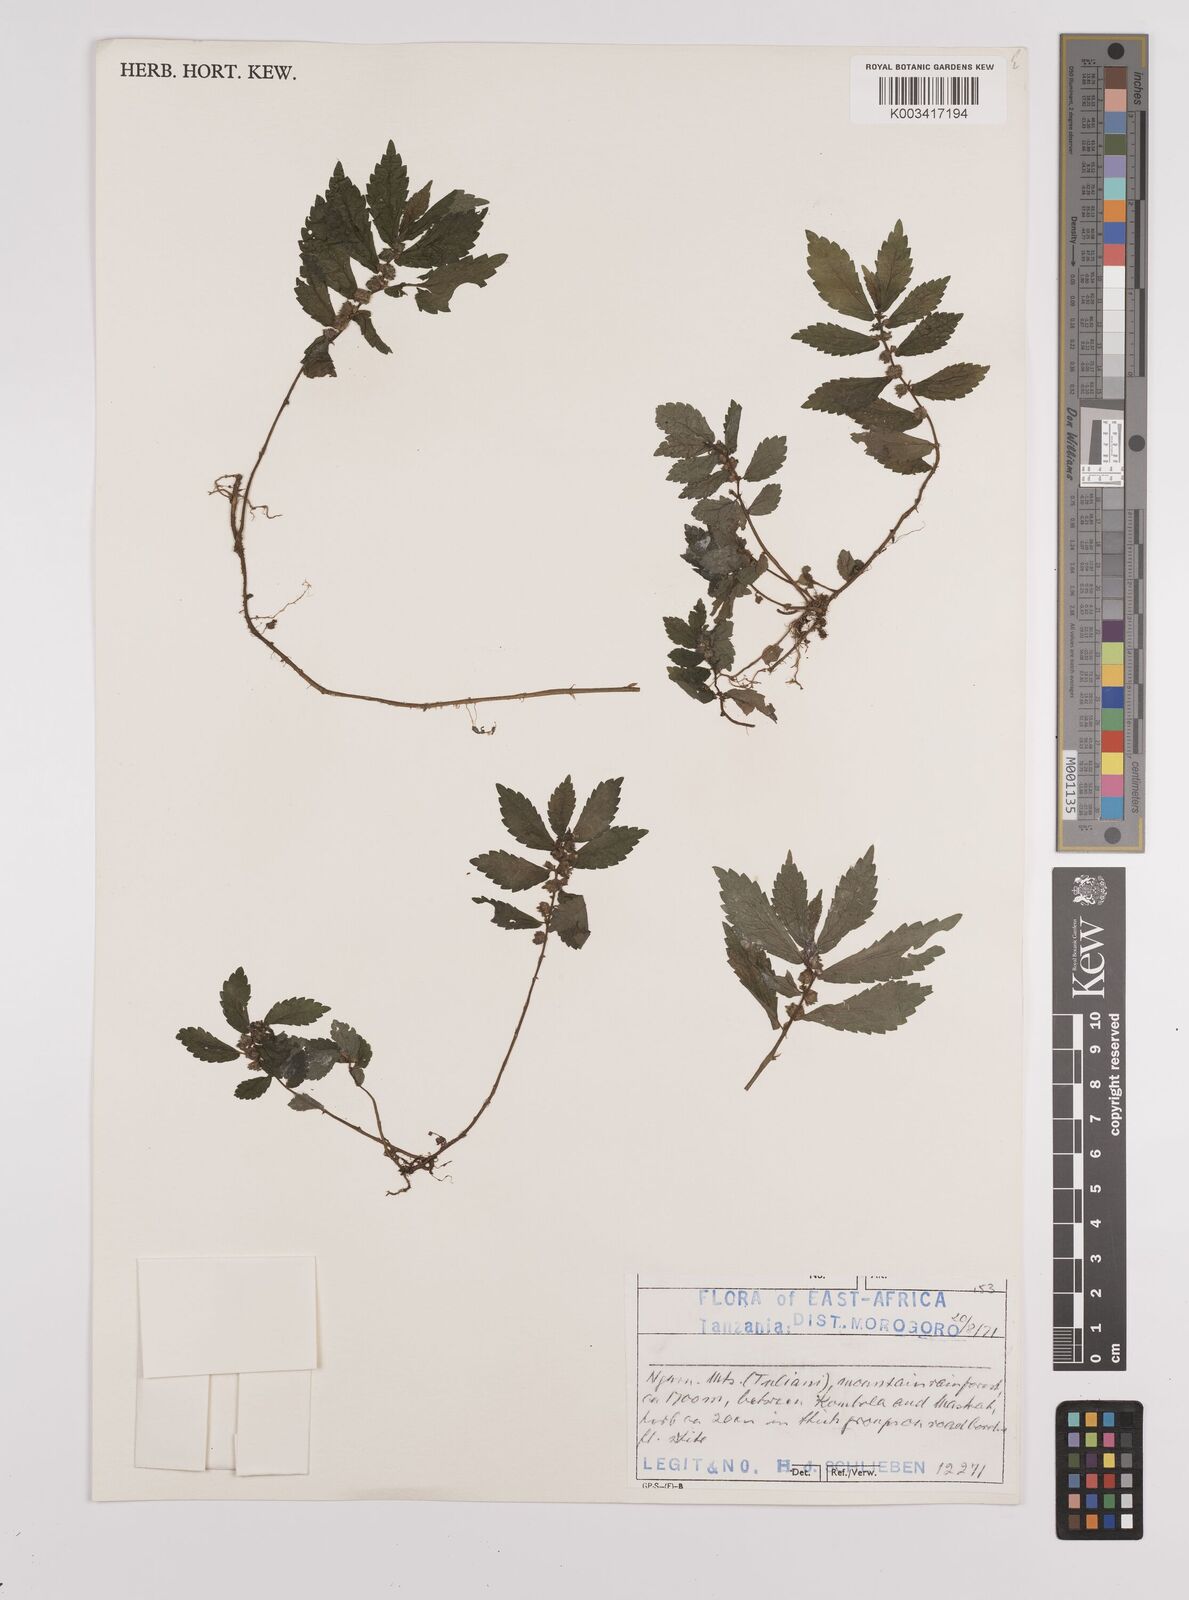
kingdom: Plantae
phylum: Tracheophyta
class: Magnoliopsida
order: Rosales
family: Urticaceae
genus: Elatostema
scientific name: Elatostema monticola
